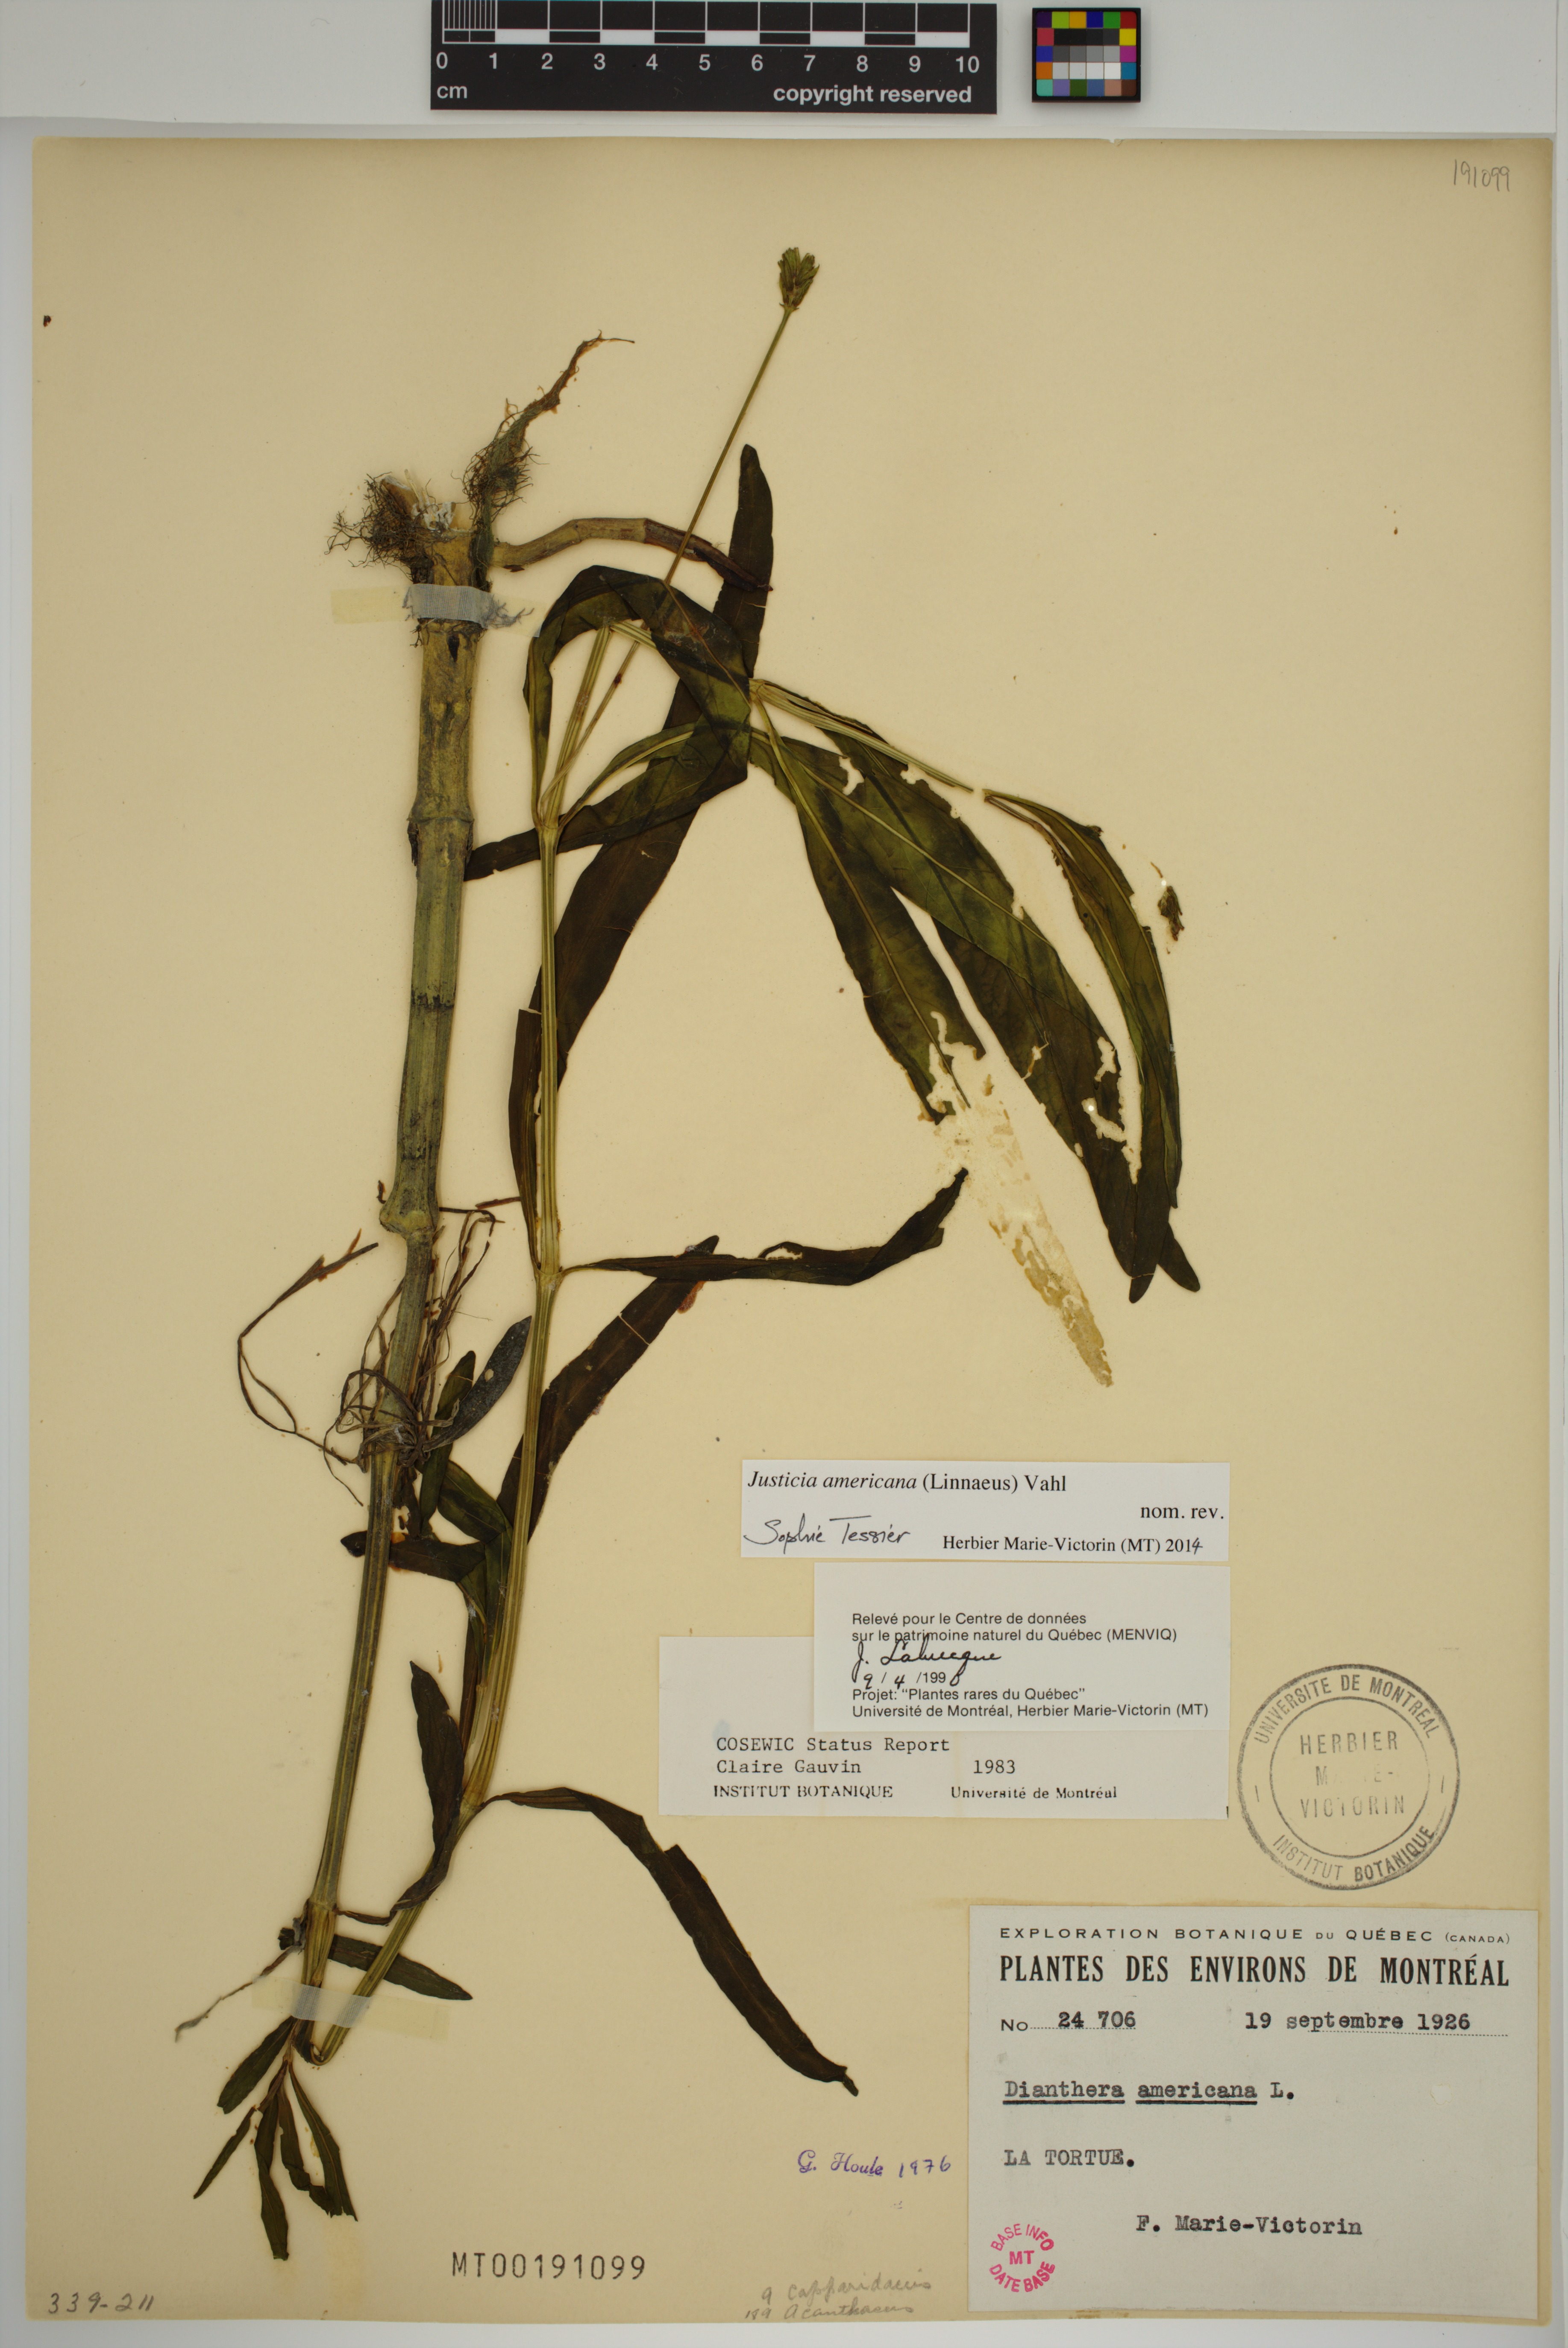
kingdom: Plantae
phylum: Tracheophyta
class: Magnoliopsida
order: Lamiales
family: Acanthaceae
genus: Dianthera
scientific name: Dianthera americana
